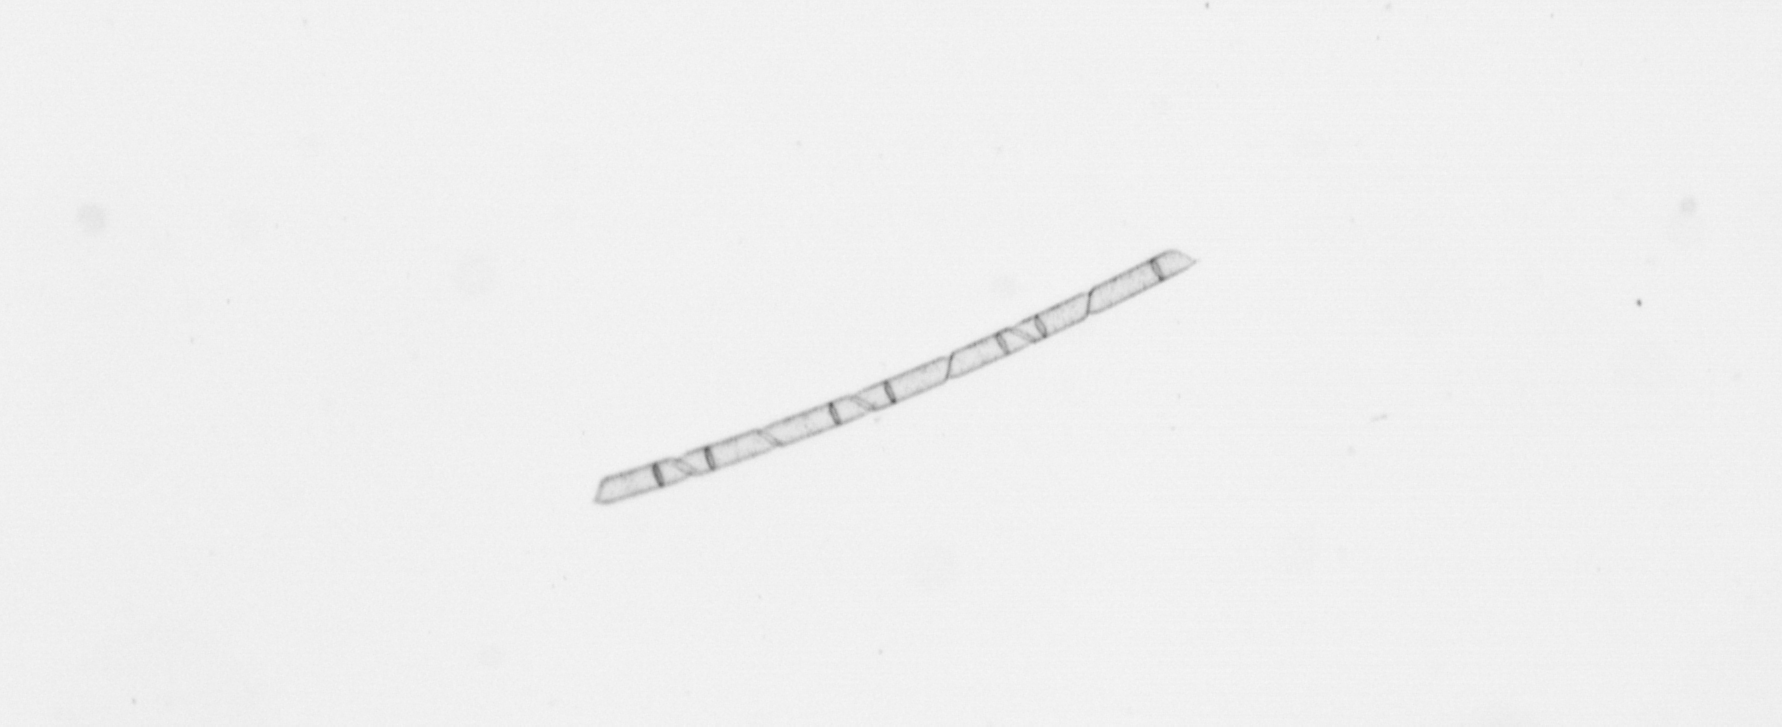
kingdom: Chromista
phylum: Ochrophyta
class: Bacillariophyceae
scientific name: Bacillariophyceae
